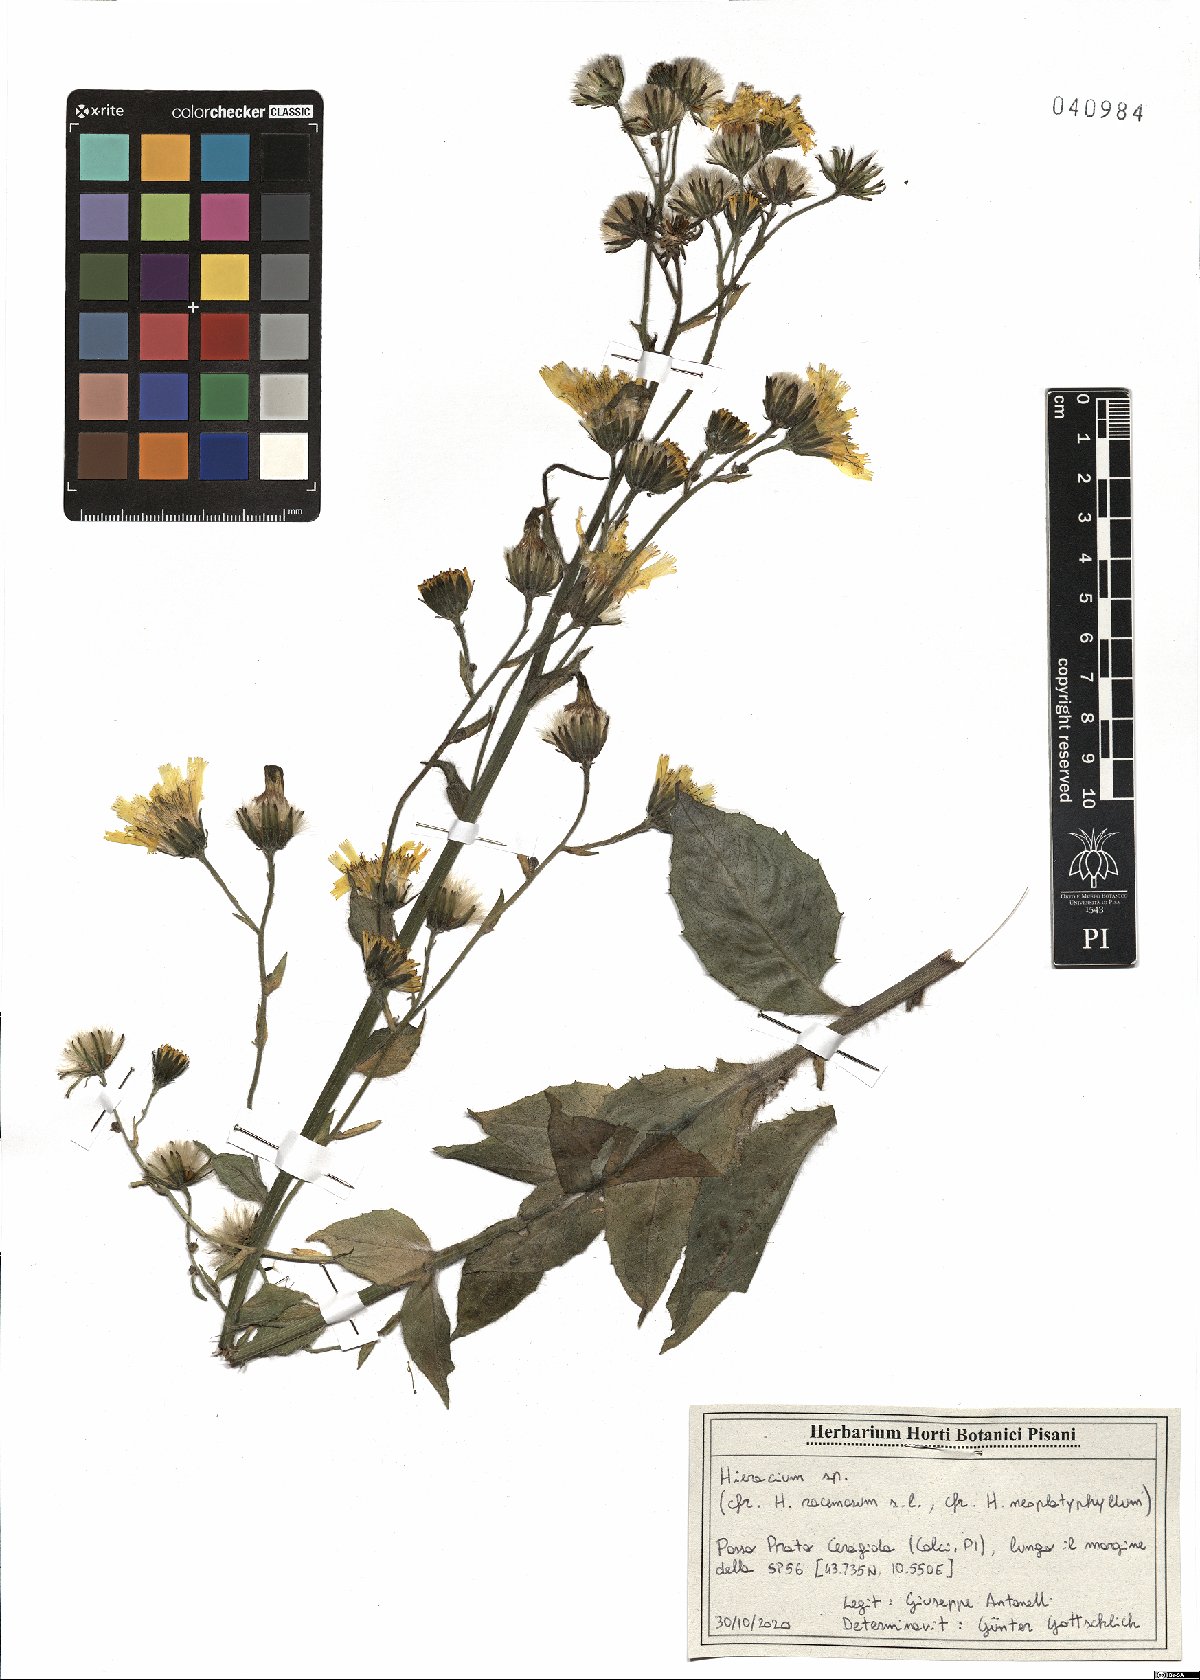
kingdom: Plantae
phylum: Tracheophyta
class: Magnoliopsida
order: Asterales
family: Asteraceae
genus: Hieracium
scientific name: Hieracium racemosum
